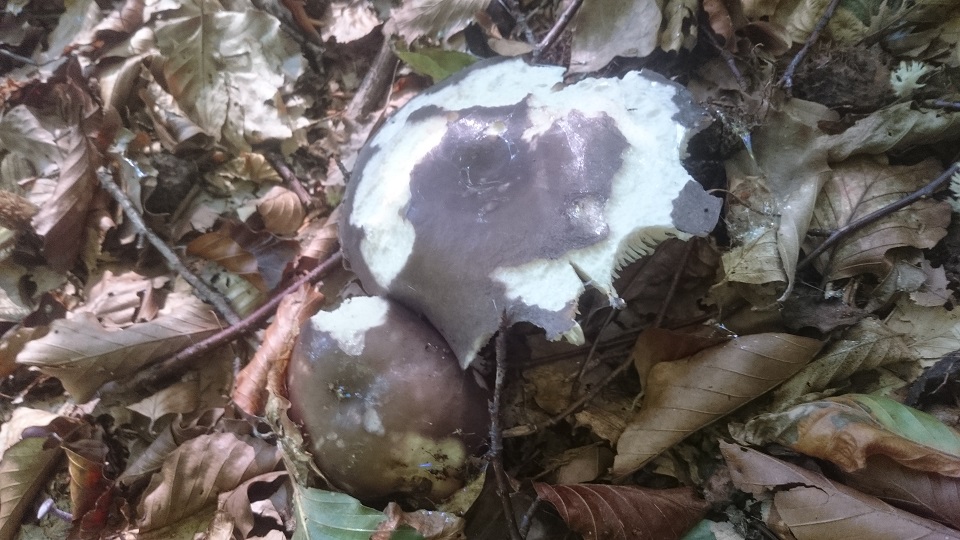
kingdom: Fungi
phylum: Basidiomycota
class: Agaricomycetes
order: Russulales
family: Russulaceae
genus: Russula
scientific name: Russula cyanoxantha
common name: broget skørhat
